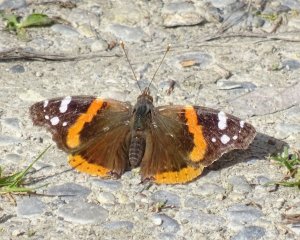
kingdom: Animalia
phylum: Arthropoda
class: Insecta
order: Lepidoptera
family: Nymphalidae
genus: Vanessa
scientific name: Vanessa atalanta
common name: Red Admiral
